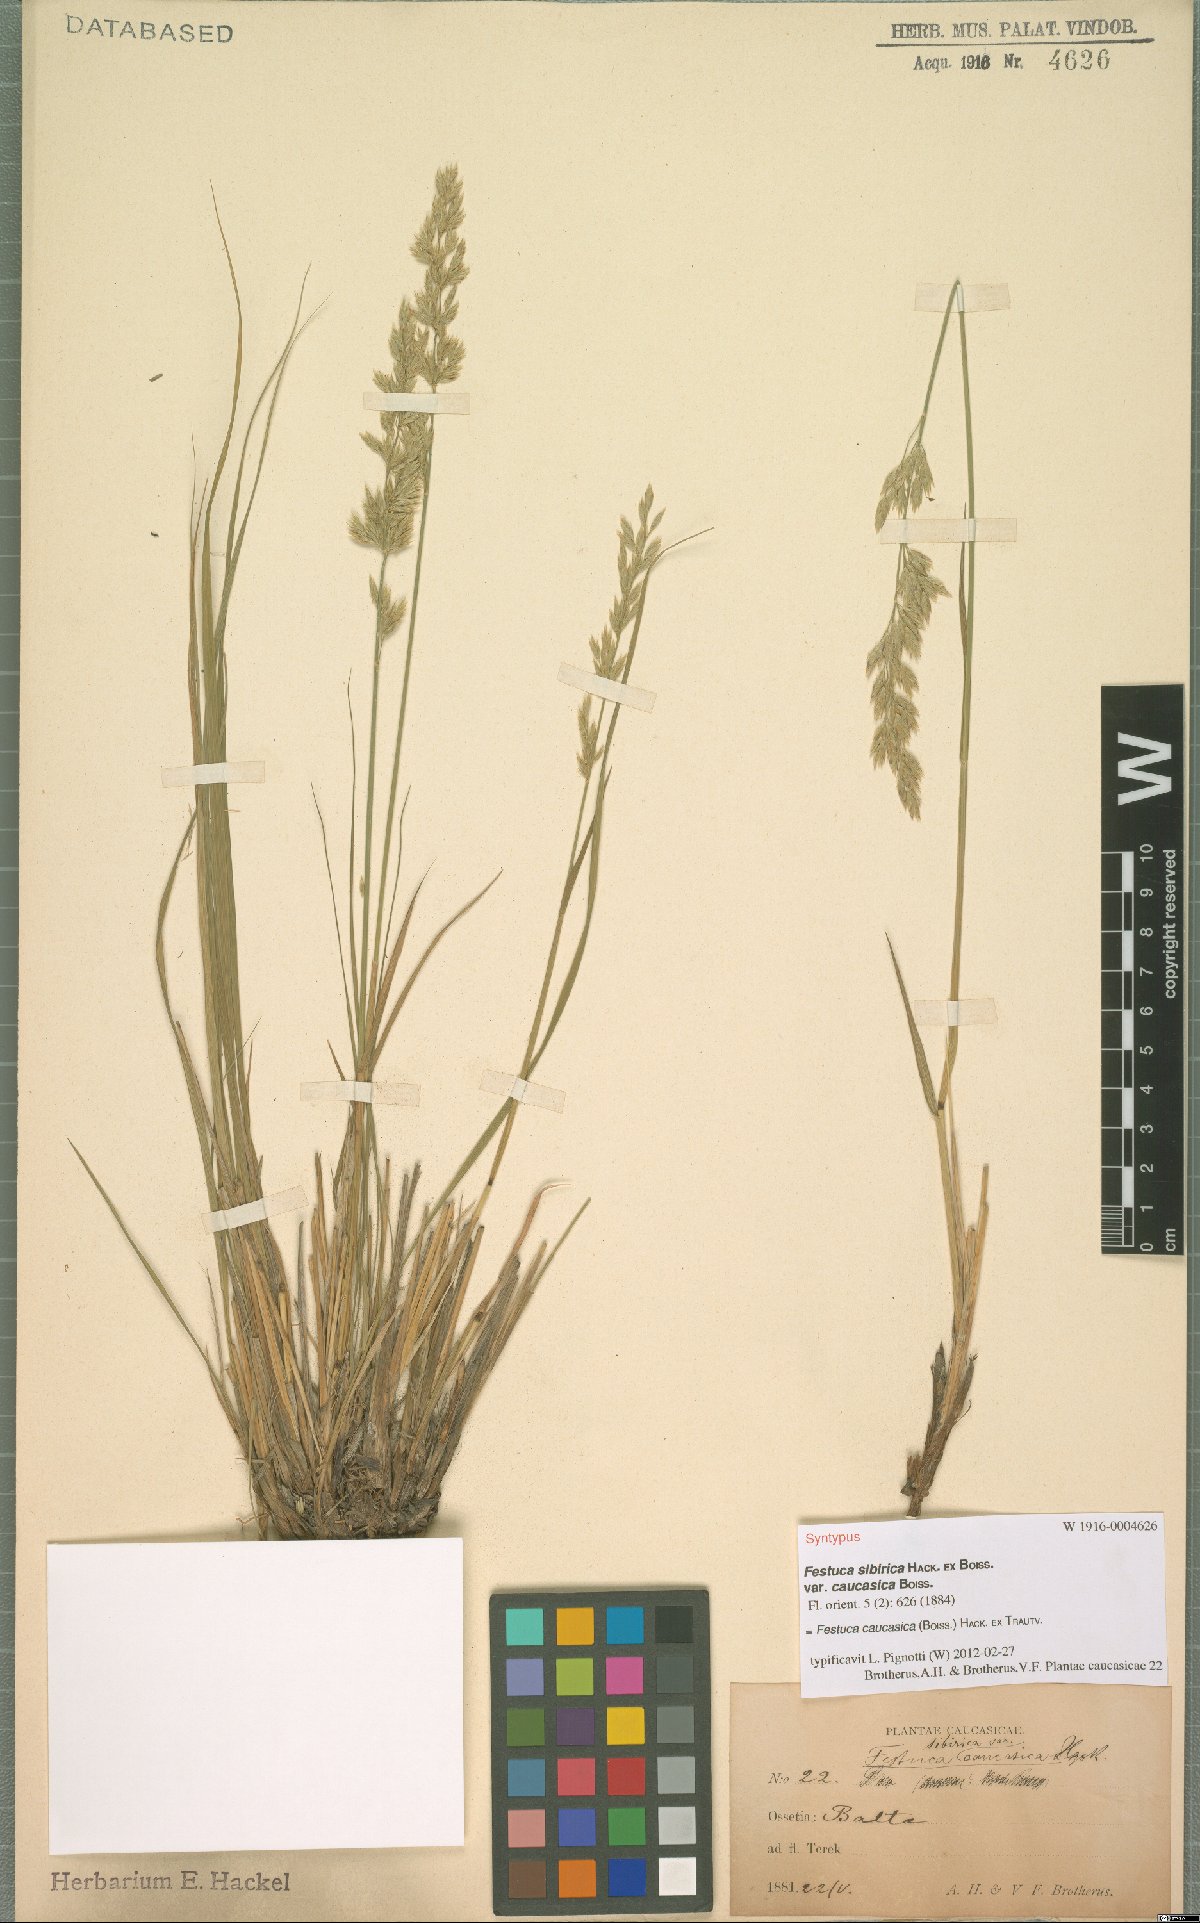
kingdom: Plantae
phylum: Tracheophyta
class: Liliopsida
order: Poales
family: Poaceae
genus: Festuca
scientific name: Festuca caucasica
